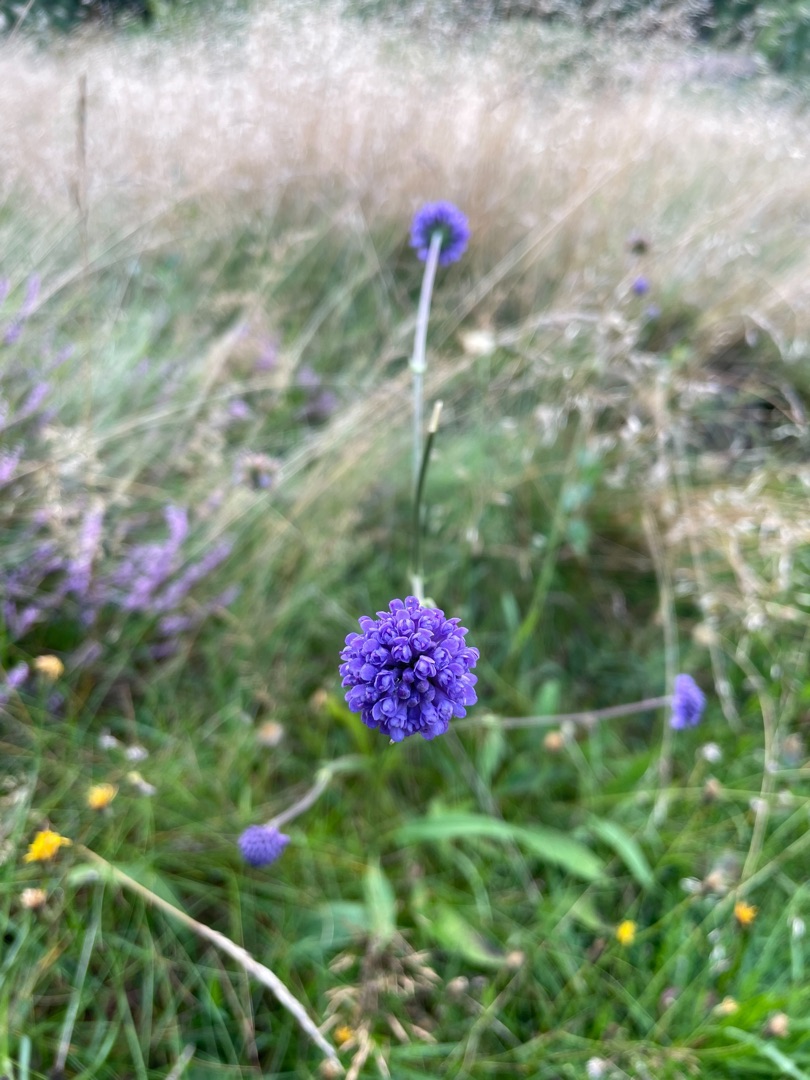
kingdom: Plantae
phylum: Tracheophyta
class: Magnoliopsida
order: Dipsacales
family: Caprifoliaceae
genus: Succisa
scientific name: Succisa pratensis
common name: Djævelsbid
